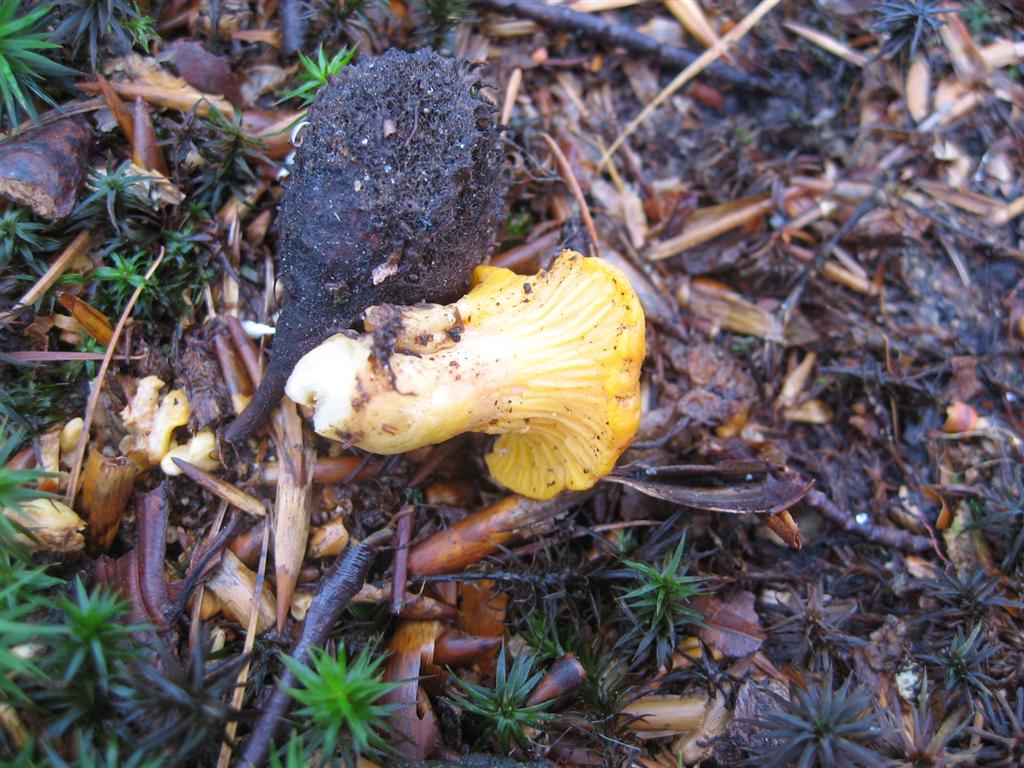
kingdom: Fungi
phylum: Basidiomycota
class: Agaricomycetes
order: Cantharellales
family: Hydnaceae
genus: Cantharellus
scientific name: Cantharellus cibarius
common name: almindelig kantarel
